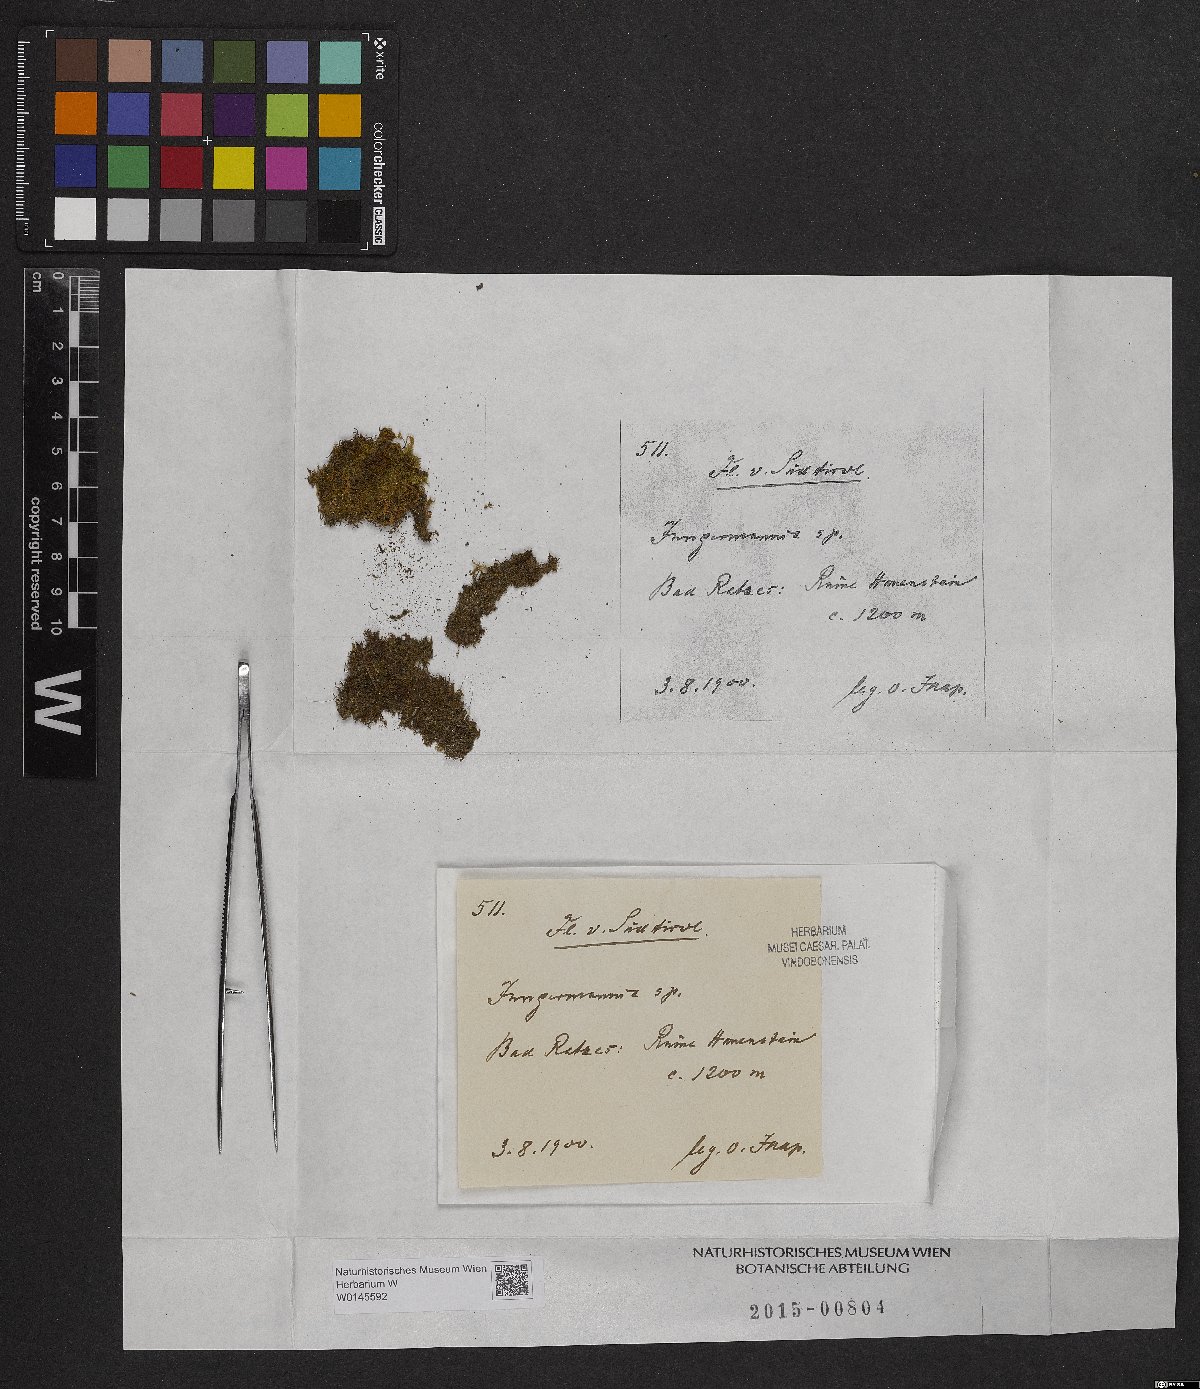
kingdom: Plantae
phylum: Marchantiophyta
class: Jungermanniopsida
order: Jungermanniales
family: Jungermanniaceae
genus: Jungermannia
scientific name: Jungermannia
